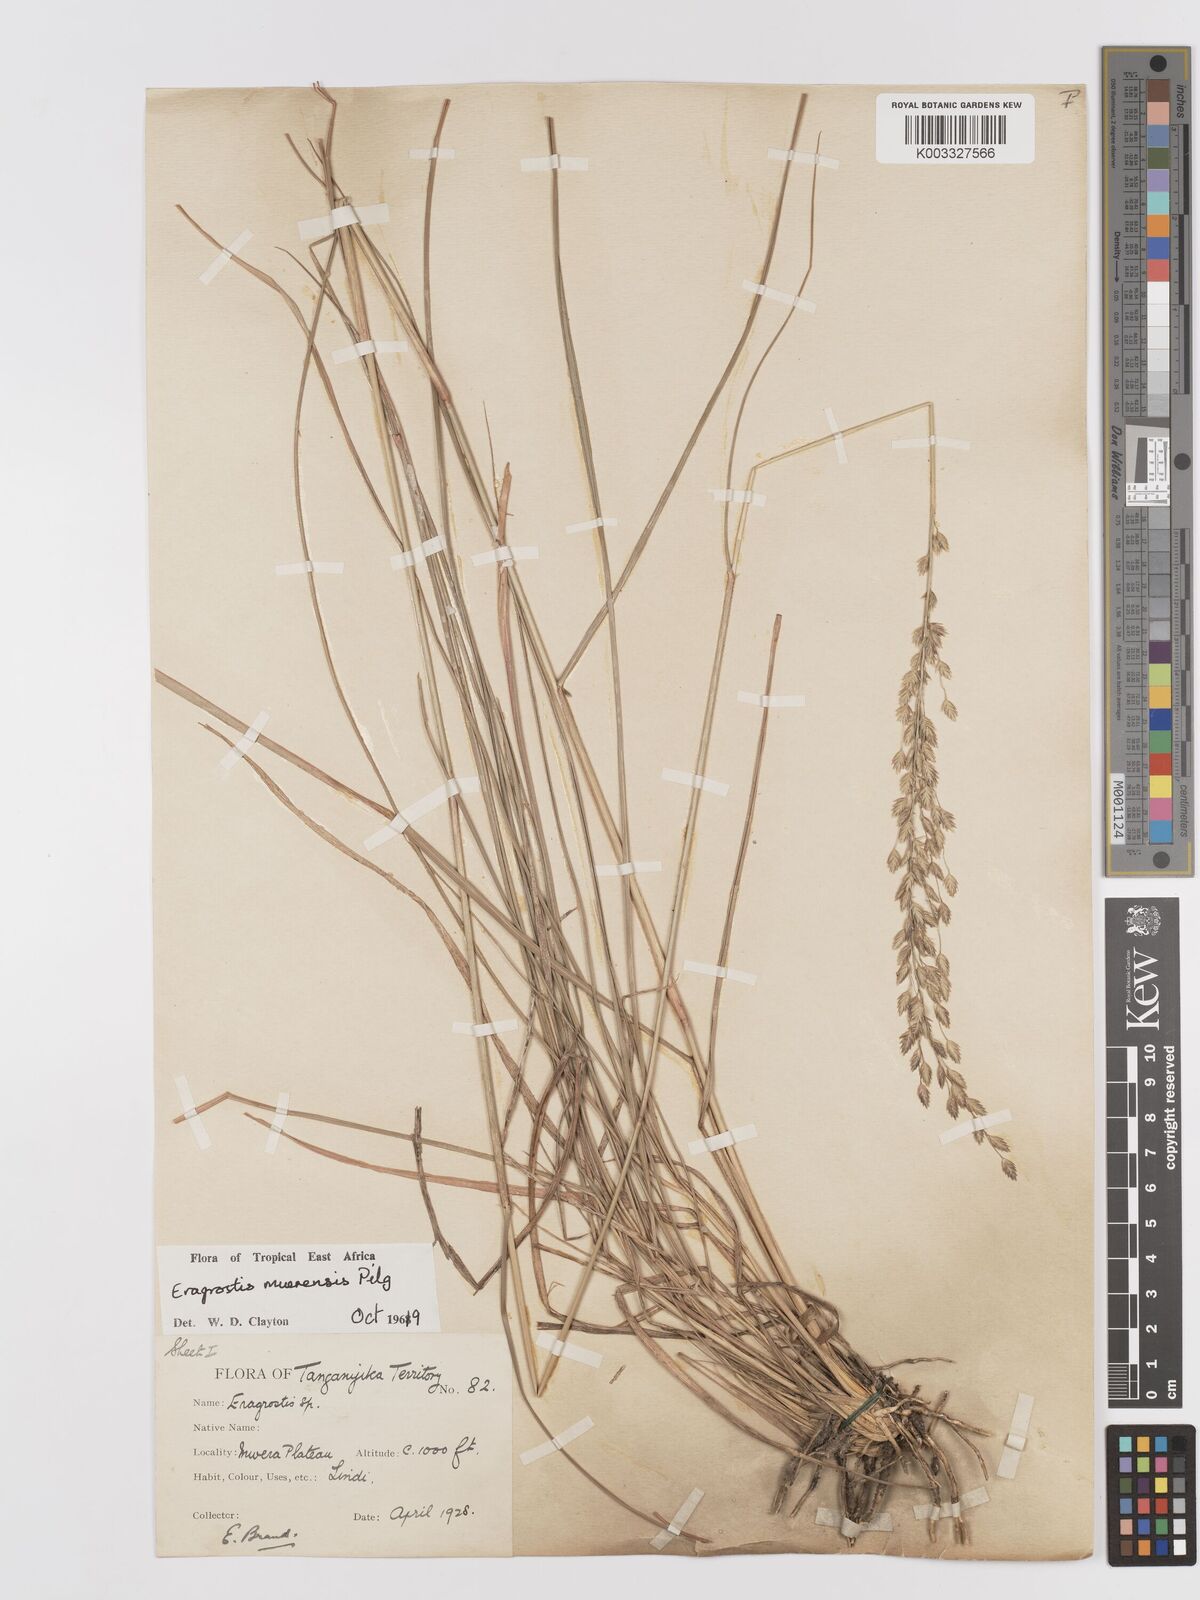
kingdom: Plantae
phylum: Tracheophyta
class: Liliopsida
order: Poales
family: Poaceae
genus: Eragrostis
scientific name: Eragrostis muerensis
